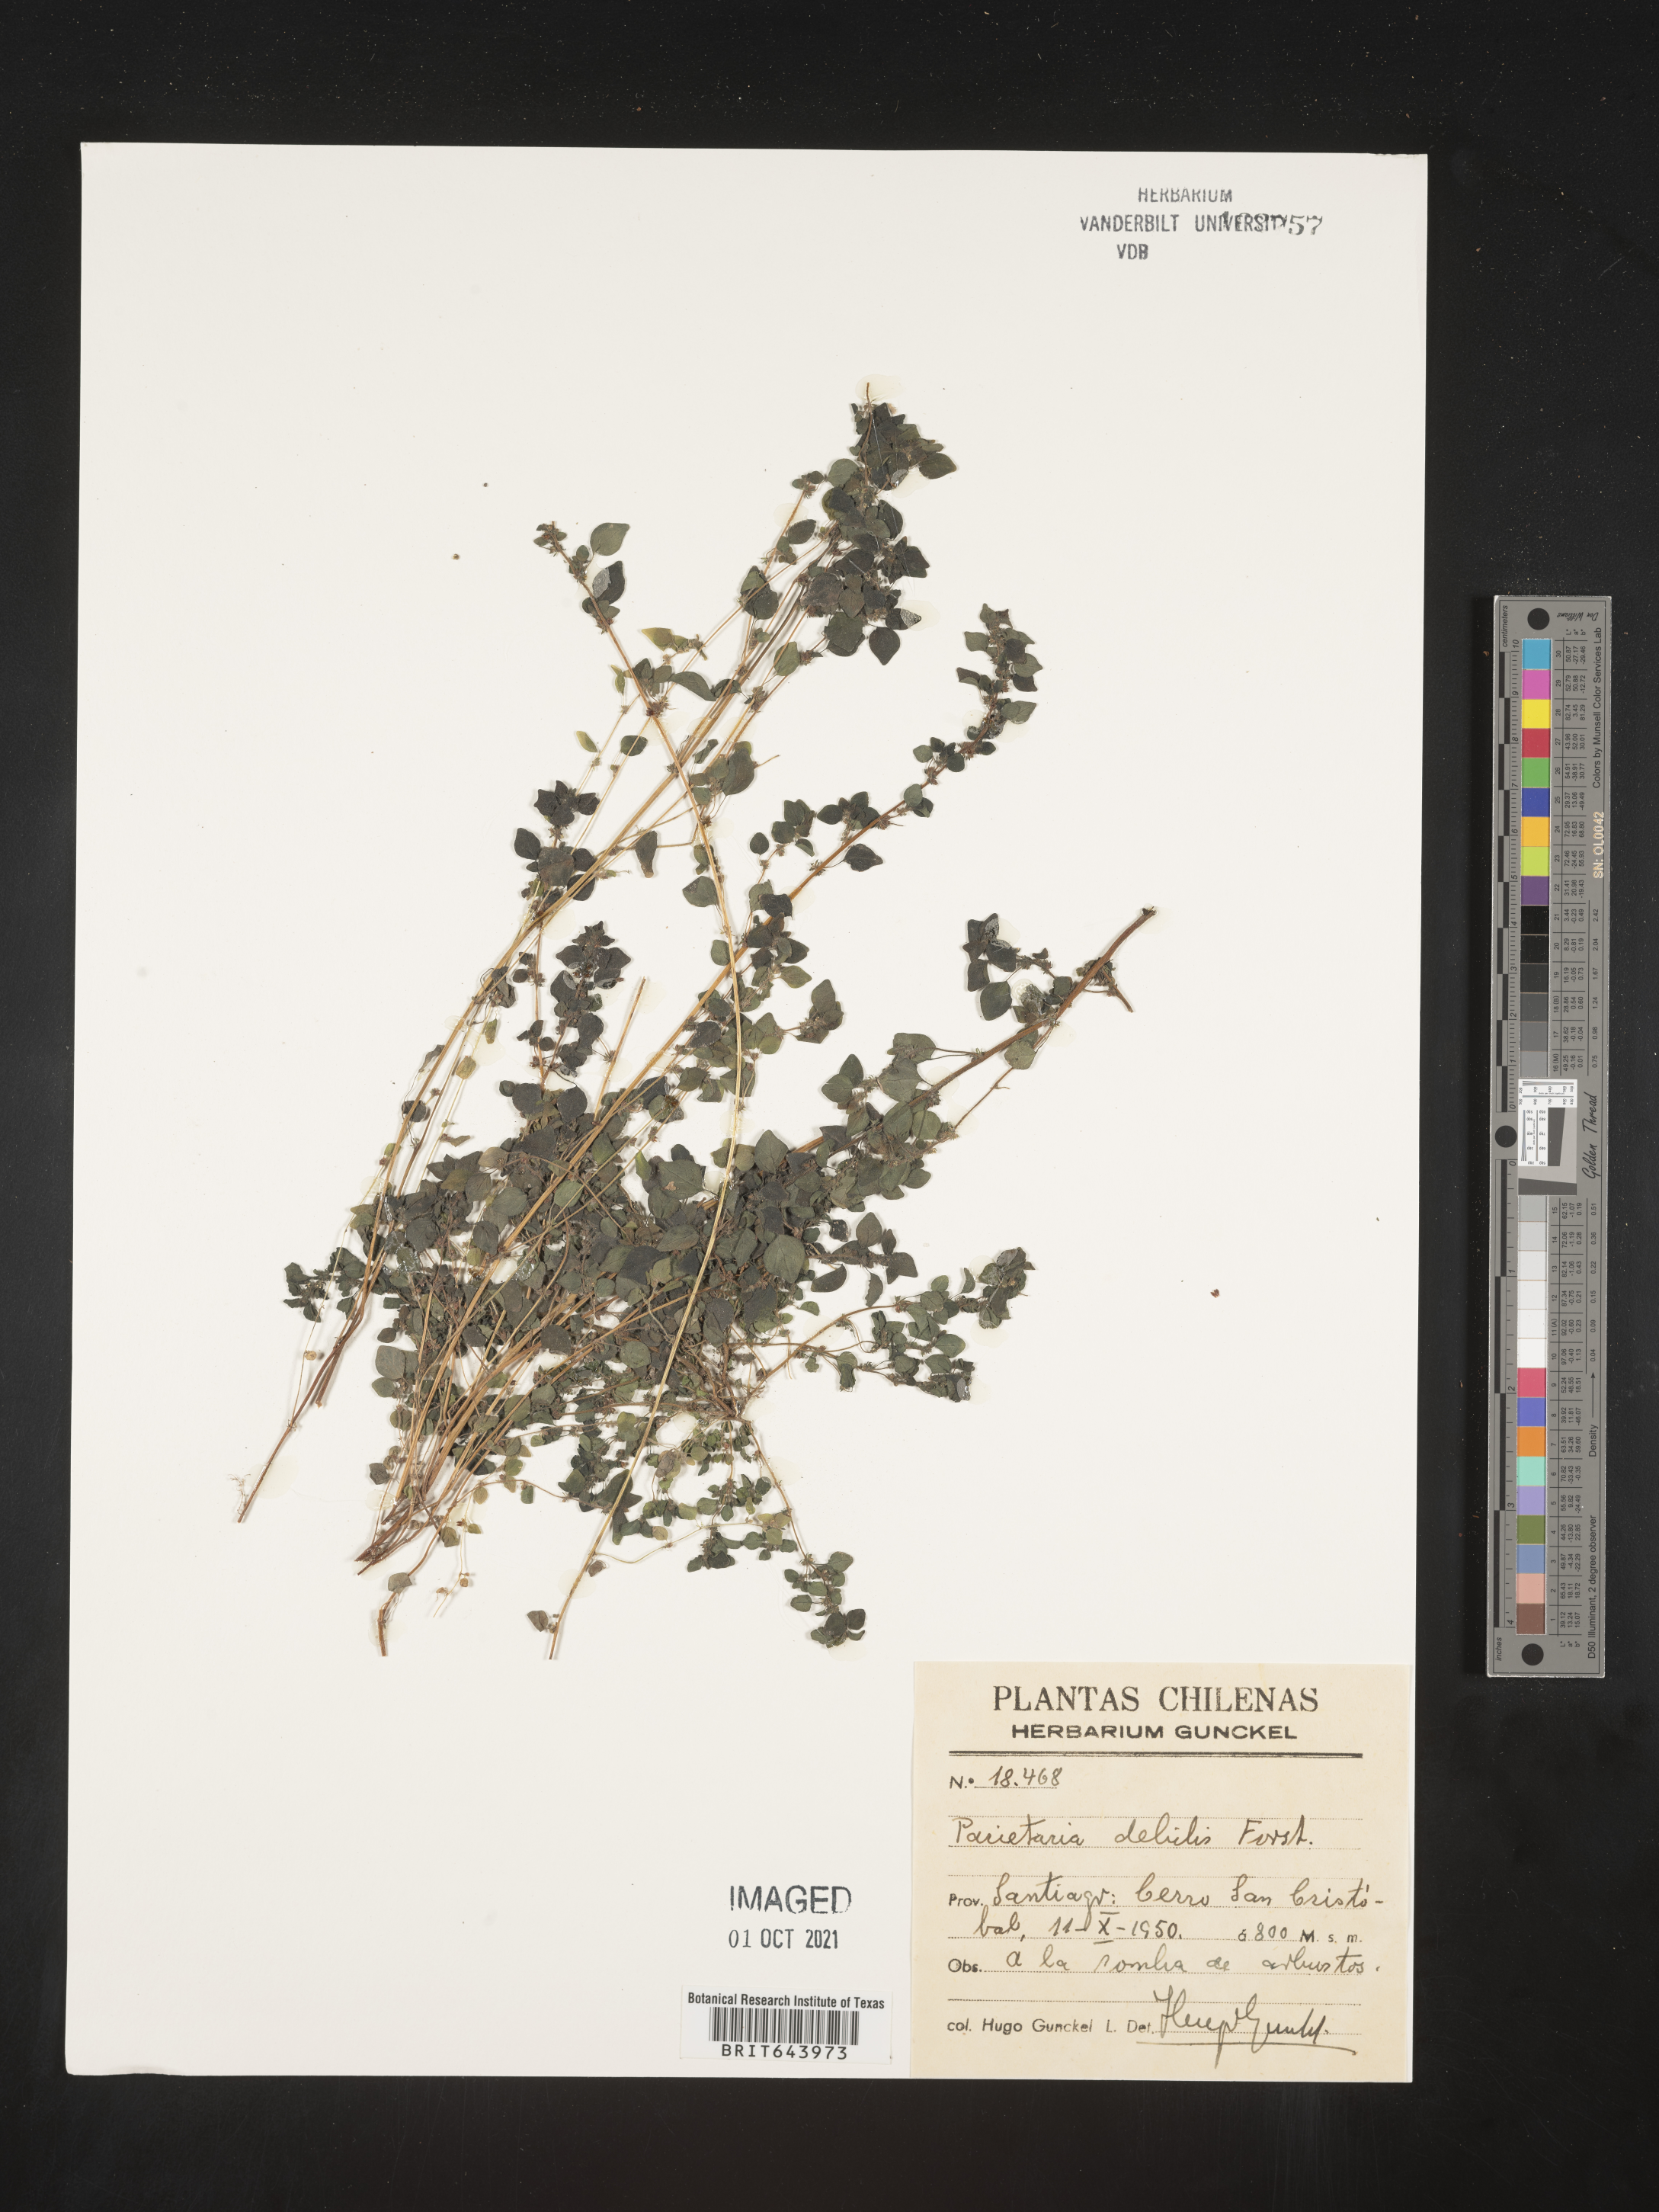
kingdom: Plantae
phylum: Tracheophyta
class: Magnoliopsida
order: Rosales
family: Urticaceae
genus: Parietaria
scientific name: Parietaria
